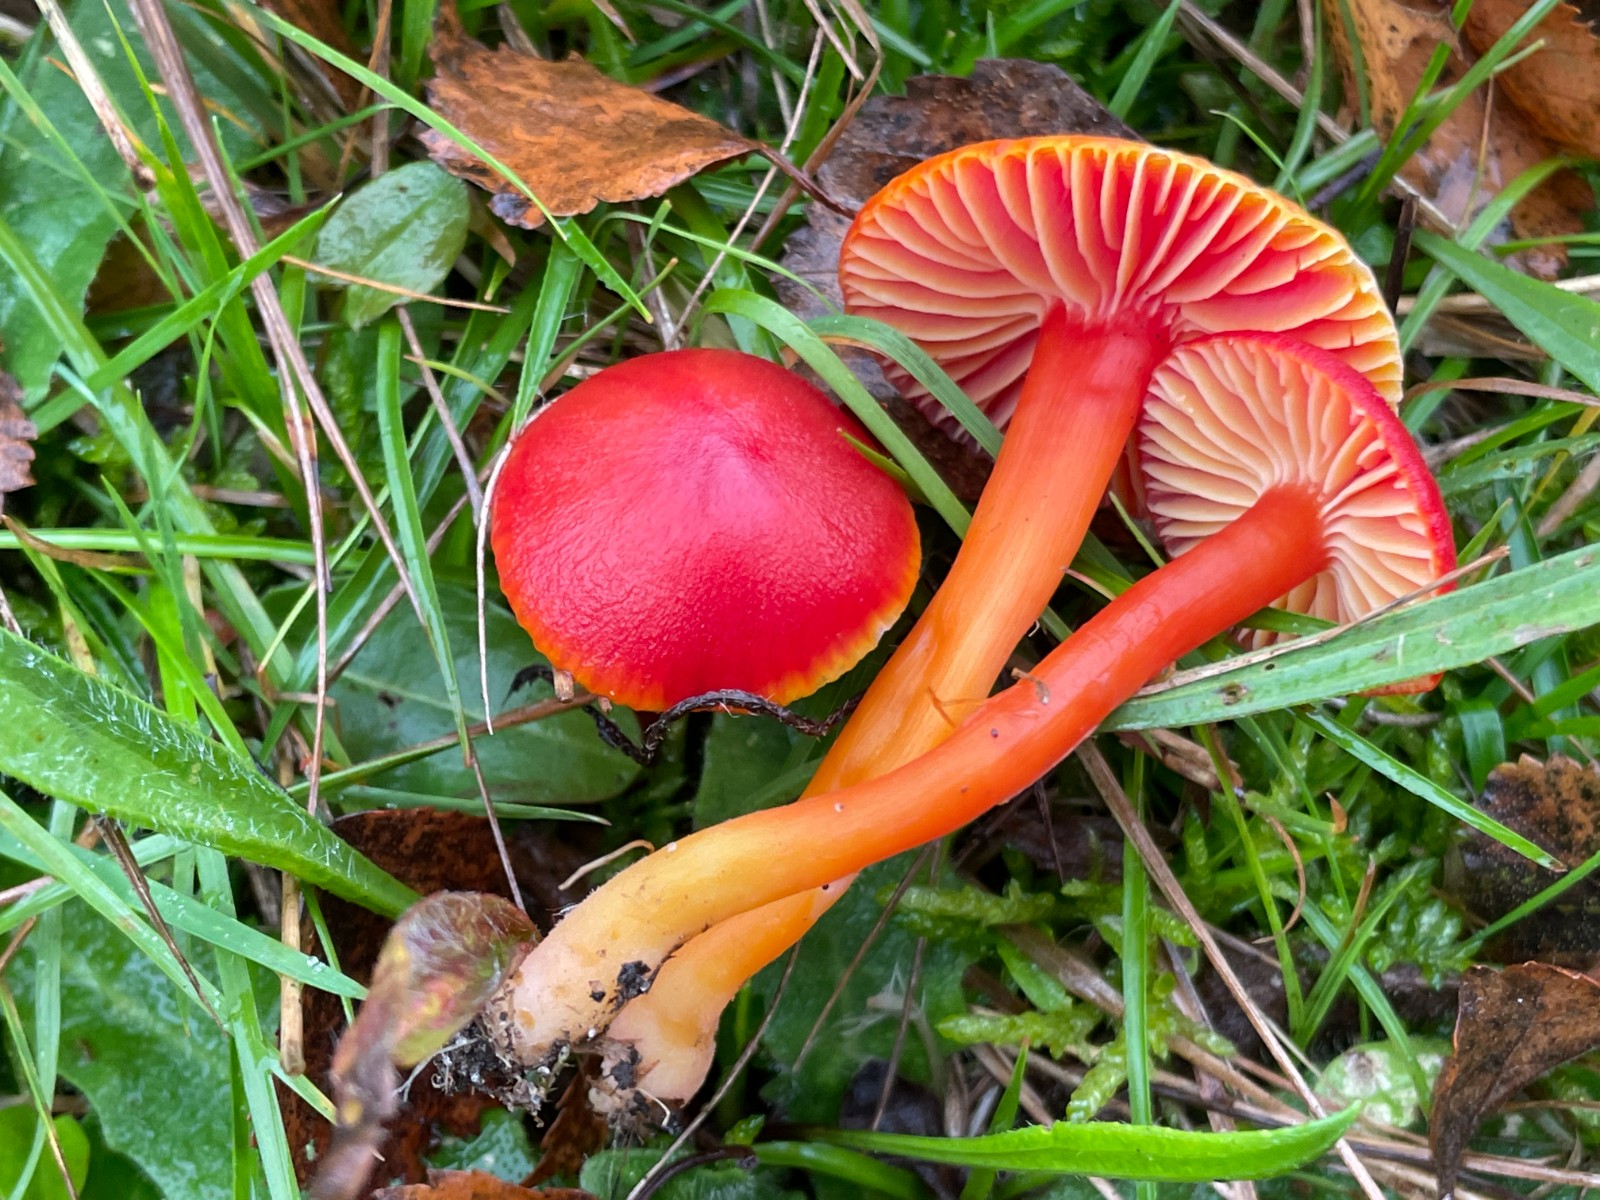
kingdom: Fungi
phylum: Basidiomycota
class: Agaricomycetes
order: Agaricales
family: Hygrophoraceae
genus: Hygrocybe
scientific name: Hygrocybe coccinea
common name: cinnober-vokshat
